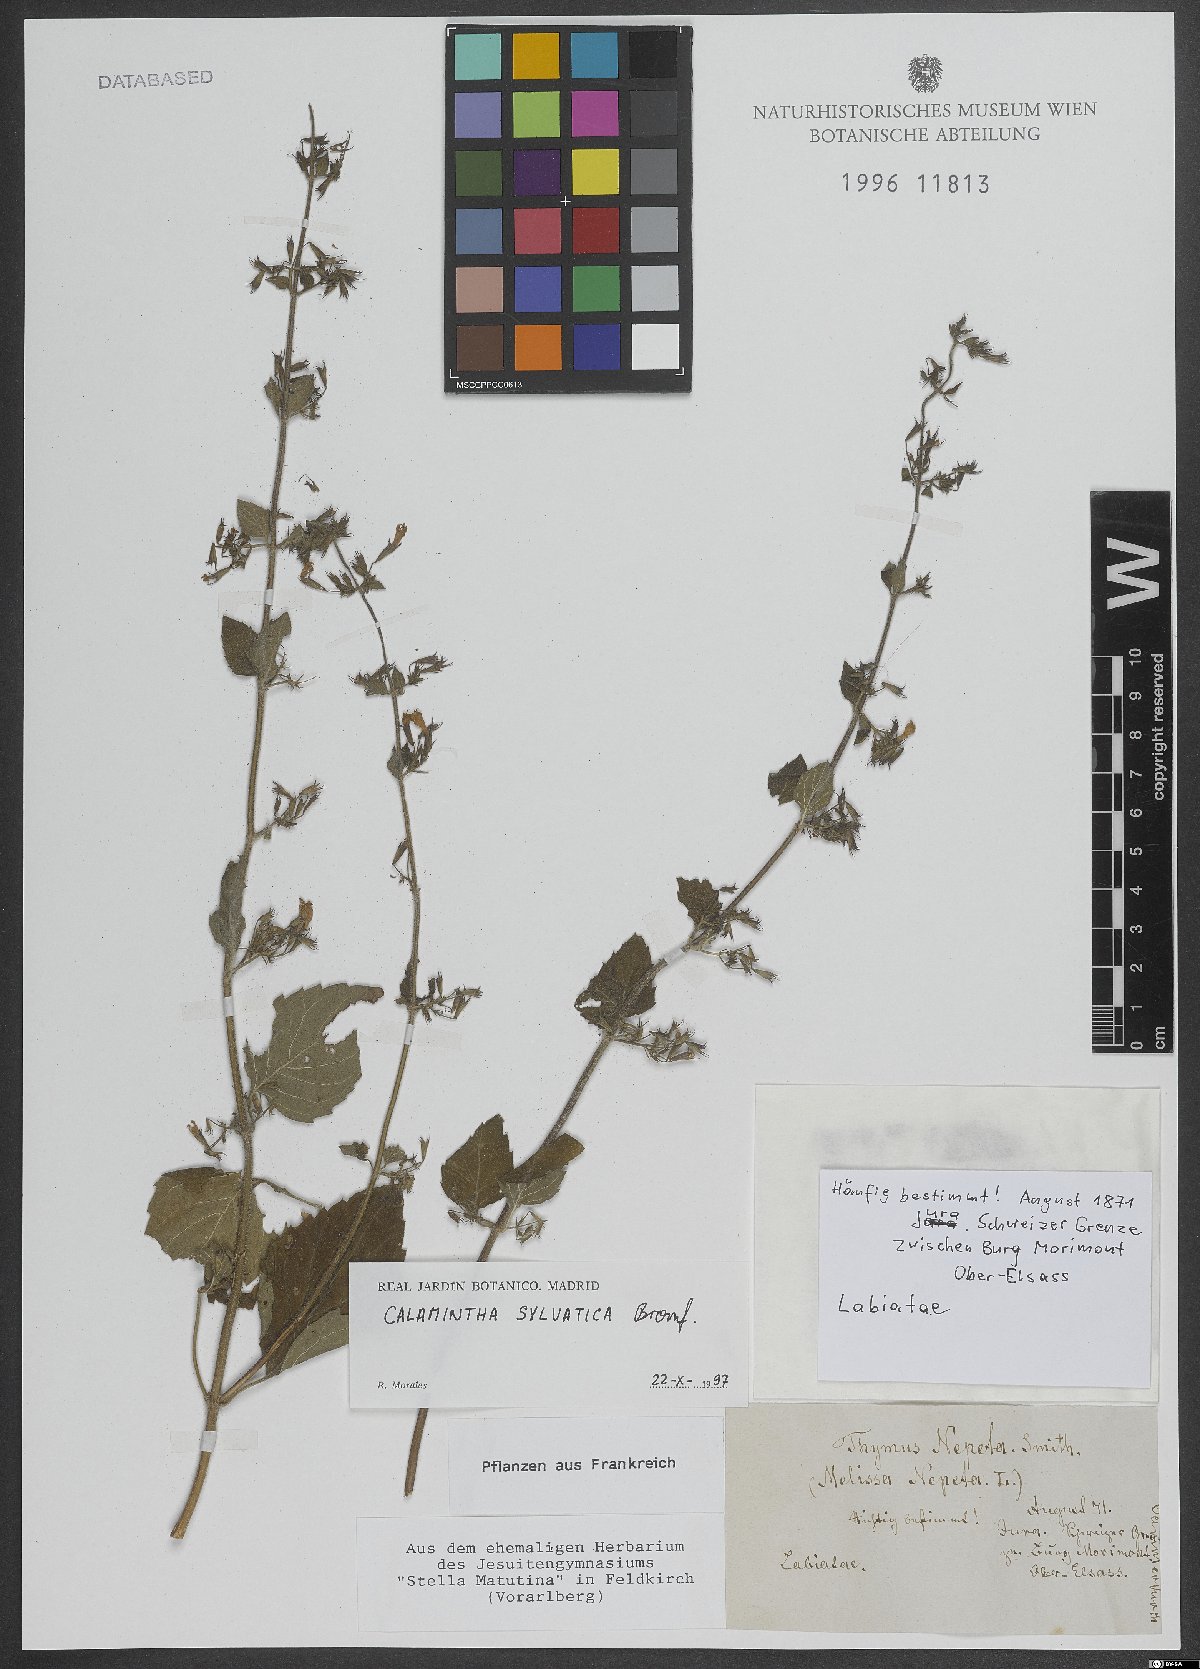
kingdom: Plantae
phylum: Tracheophyta
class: Magnoliopsida
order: Lamiales
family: Lamiaceae
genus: Clinopodium
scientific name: Clinopodium menthifolium
